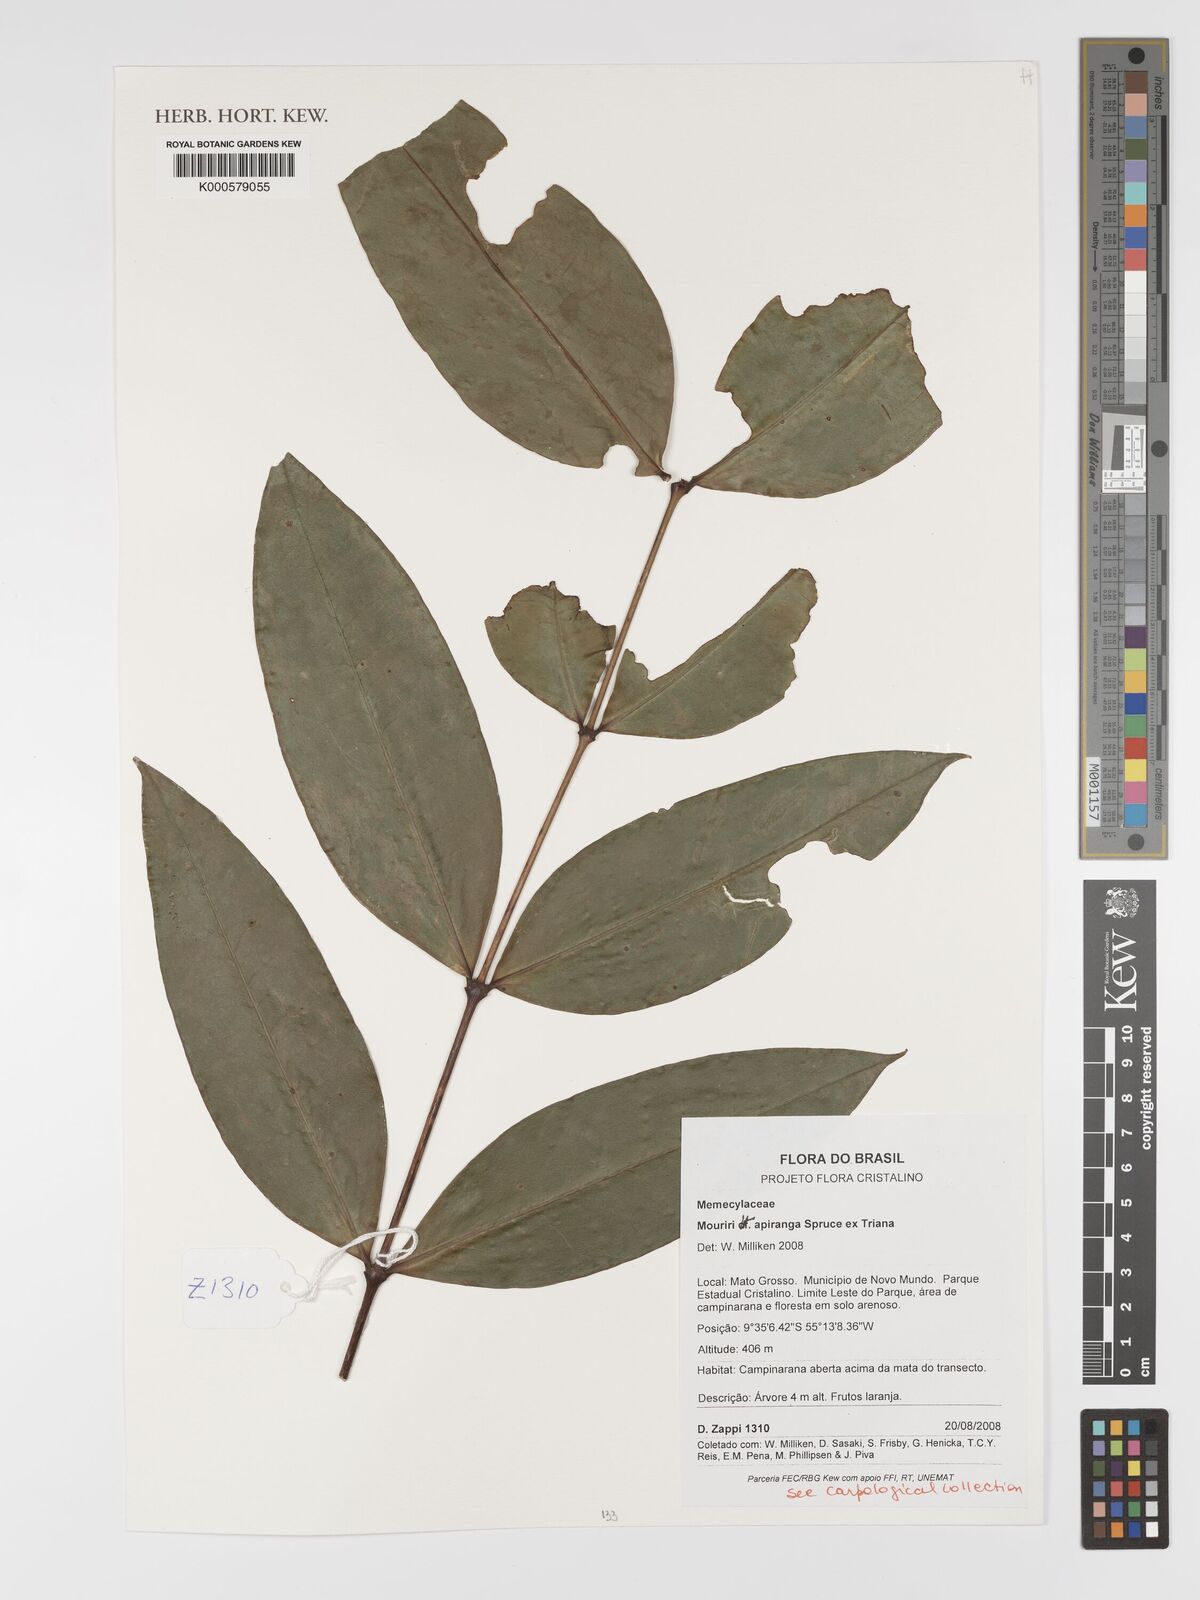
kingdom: Plantae
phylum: Tracheophyta
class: Magnoliopsida
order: Myrtales
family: Melastomataceae
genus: Mouriri
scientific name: Mouriri apiranga
